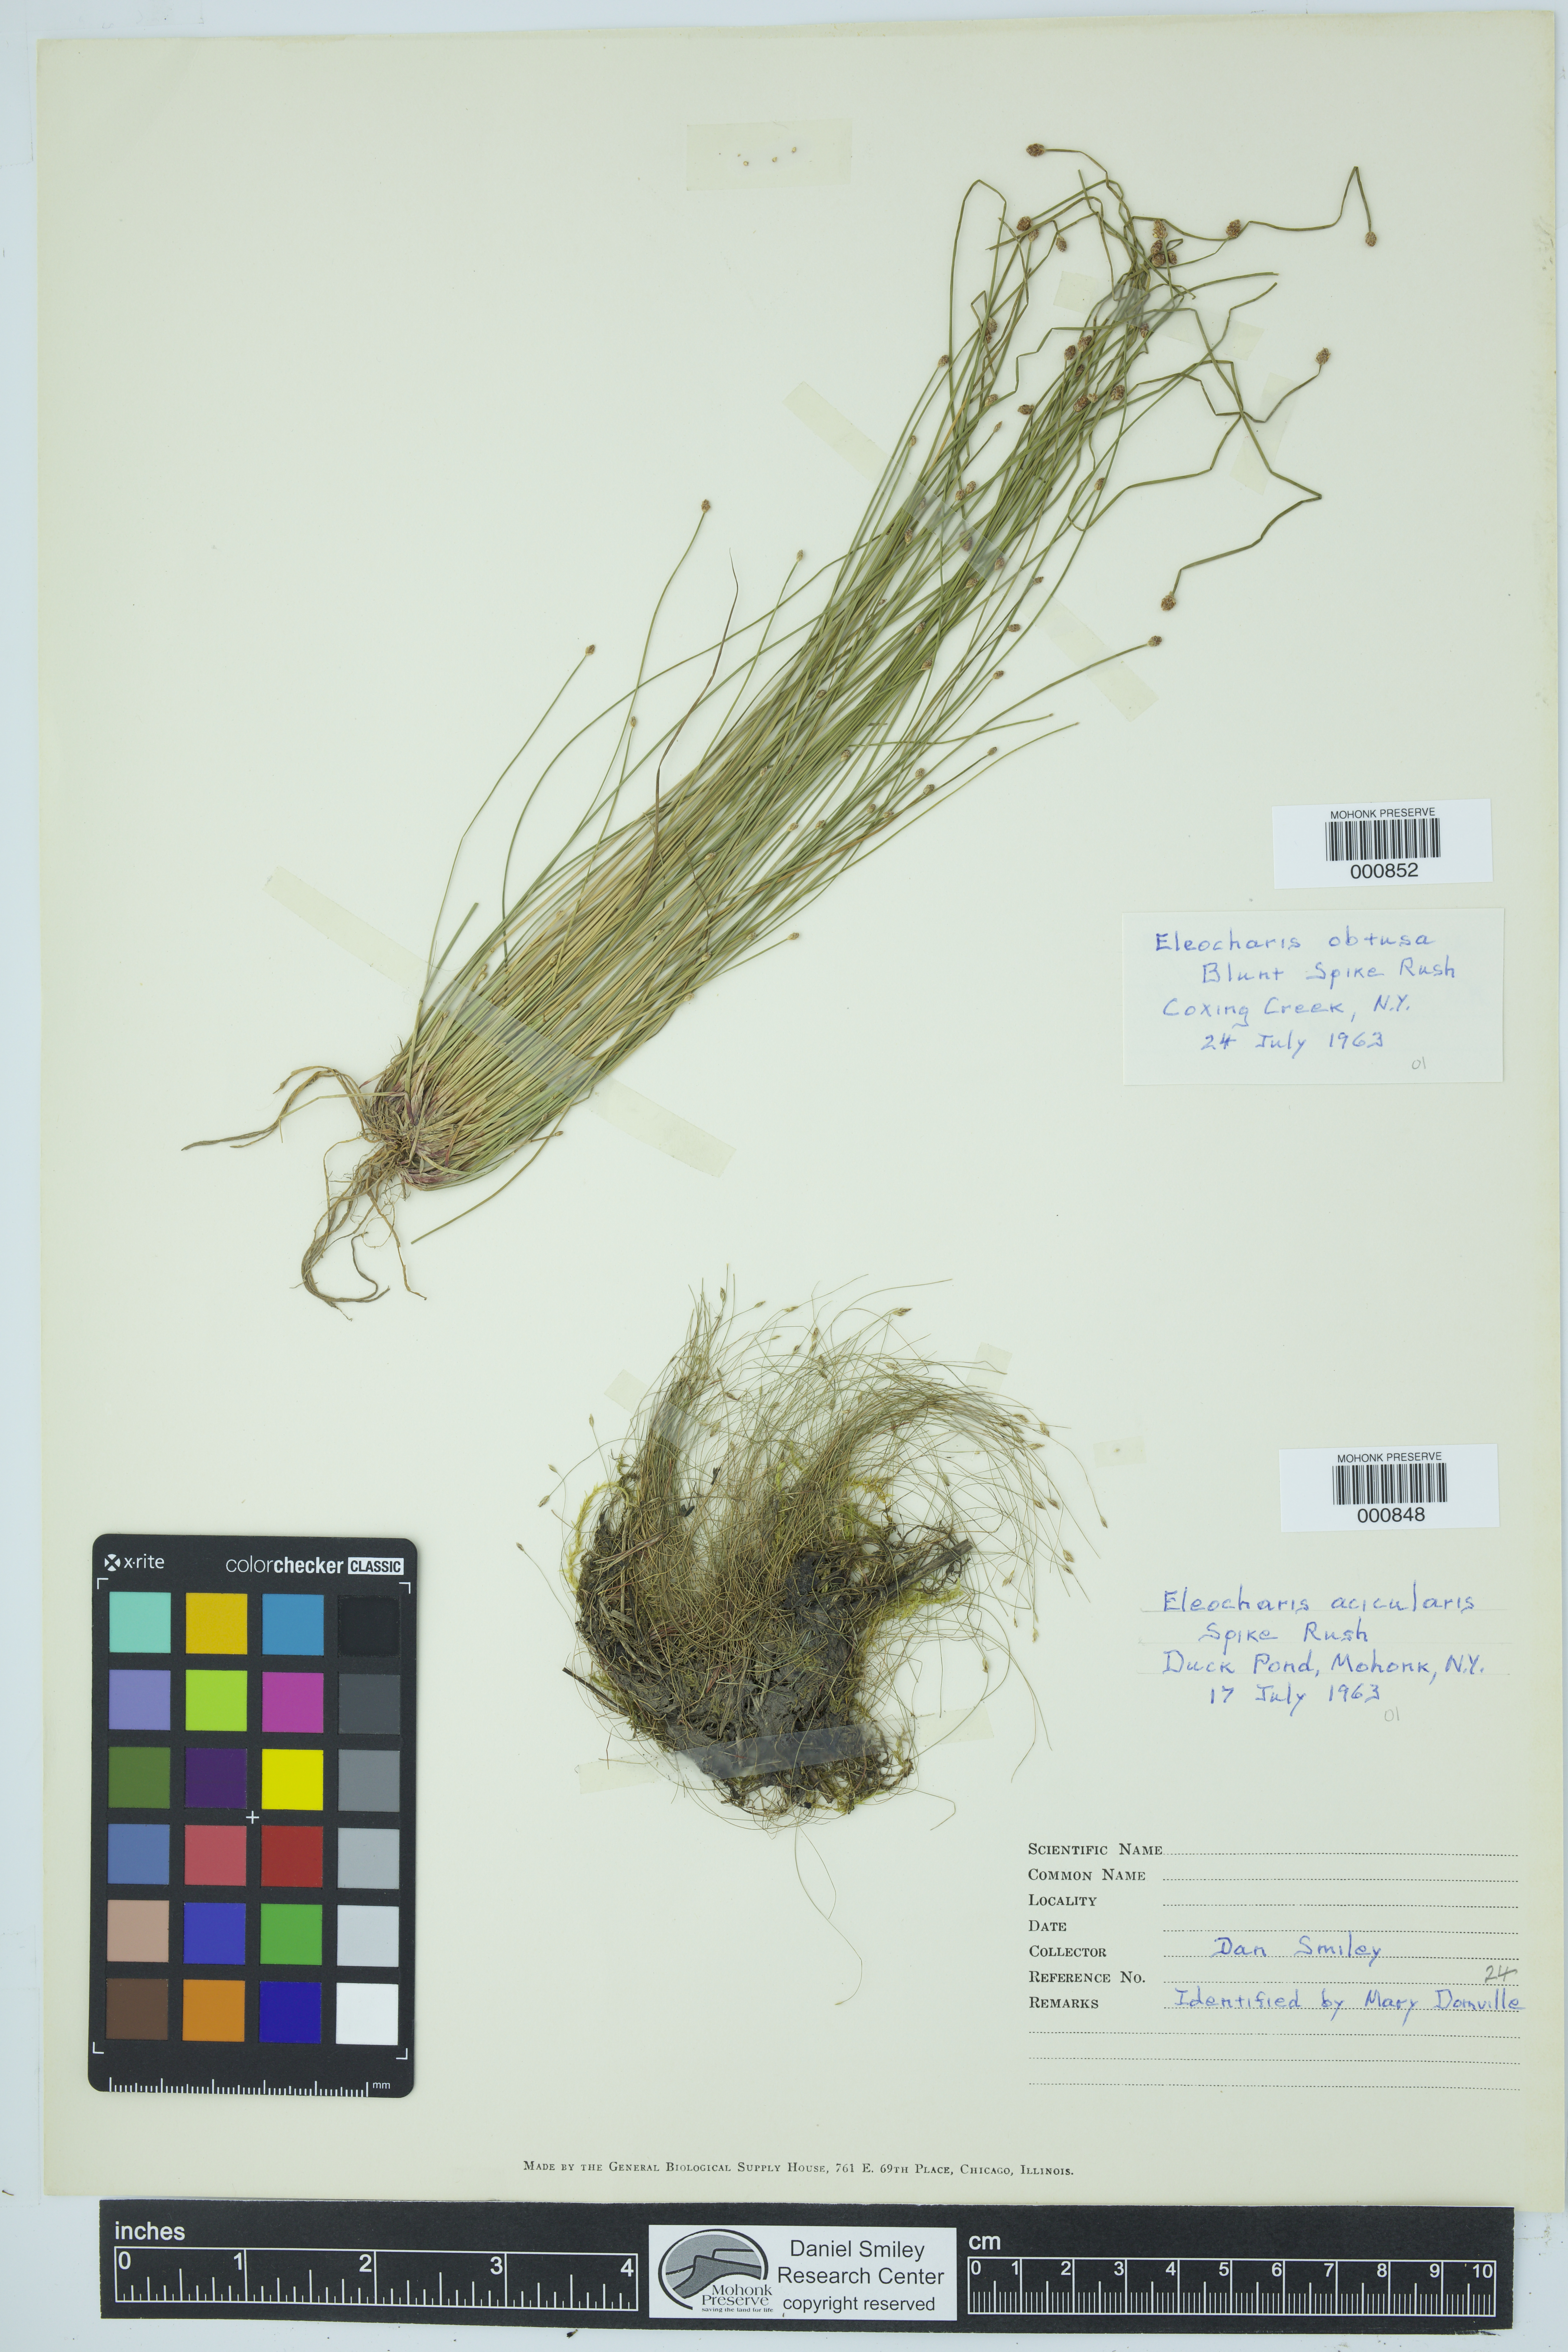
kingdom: Plantae
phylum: Tracheophyta
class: Liliopsida
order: Poales
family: Cyperaceae
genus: Eleocharis
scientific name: Eleocharis acicularis
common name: Needle spike-rush
